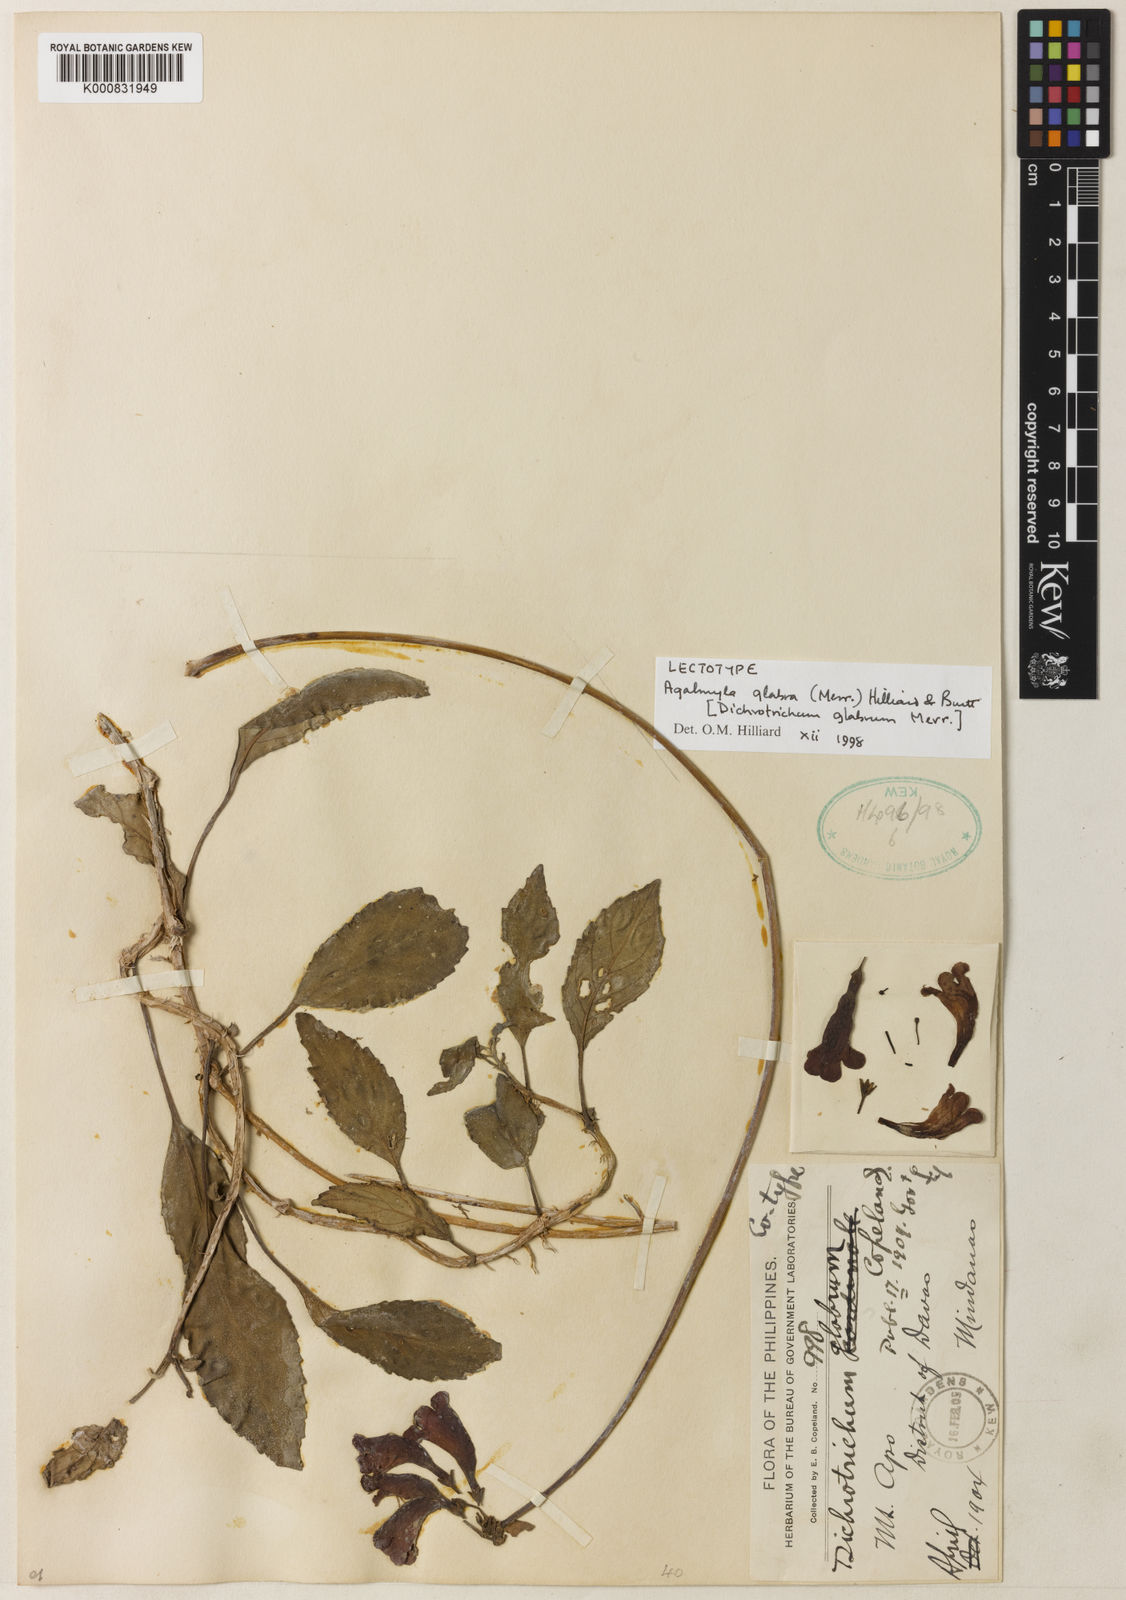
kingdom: Plantae
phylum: Tracheophyta
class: Magnoliopsida
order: Lamiales
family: Gesneriaceae
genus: Agalmyla
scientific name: Agalmyla glabra
